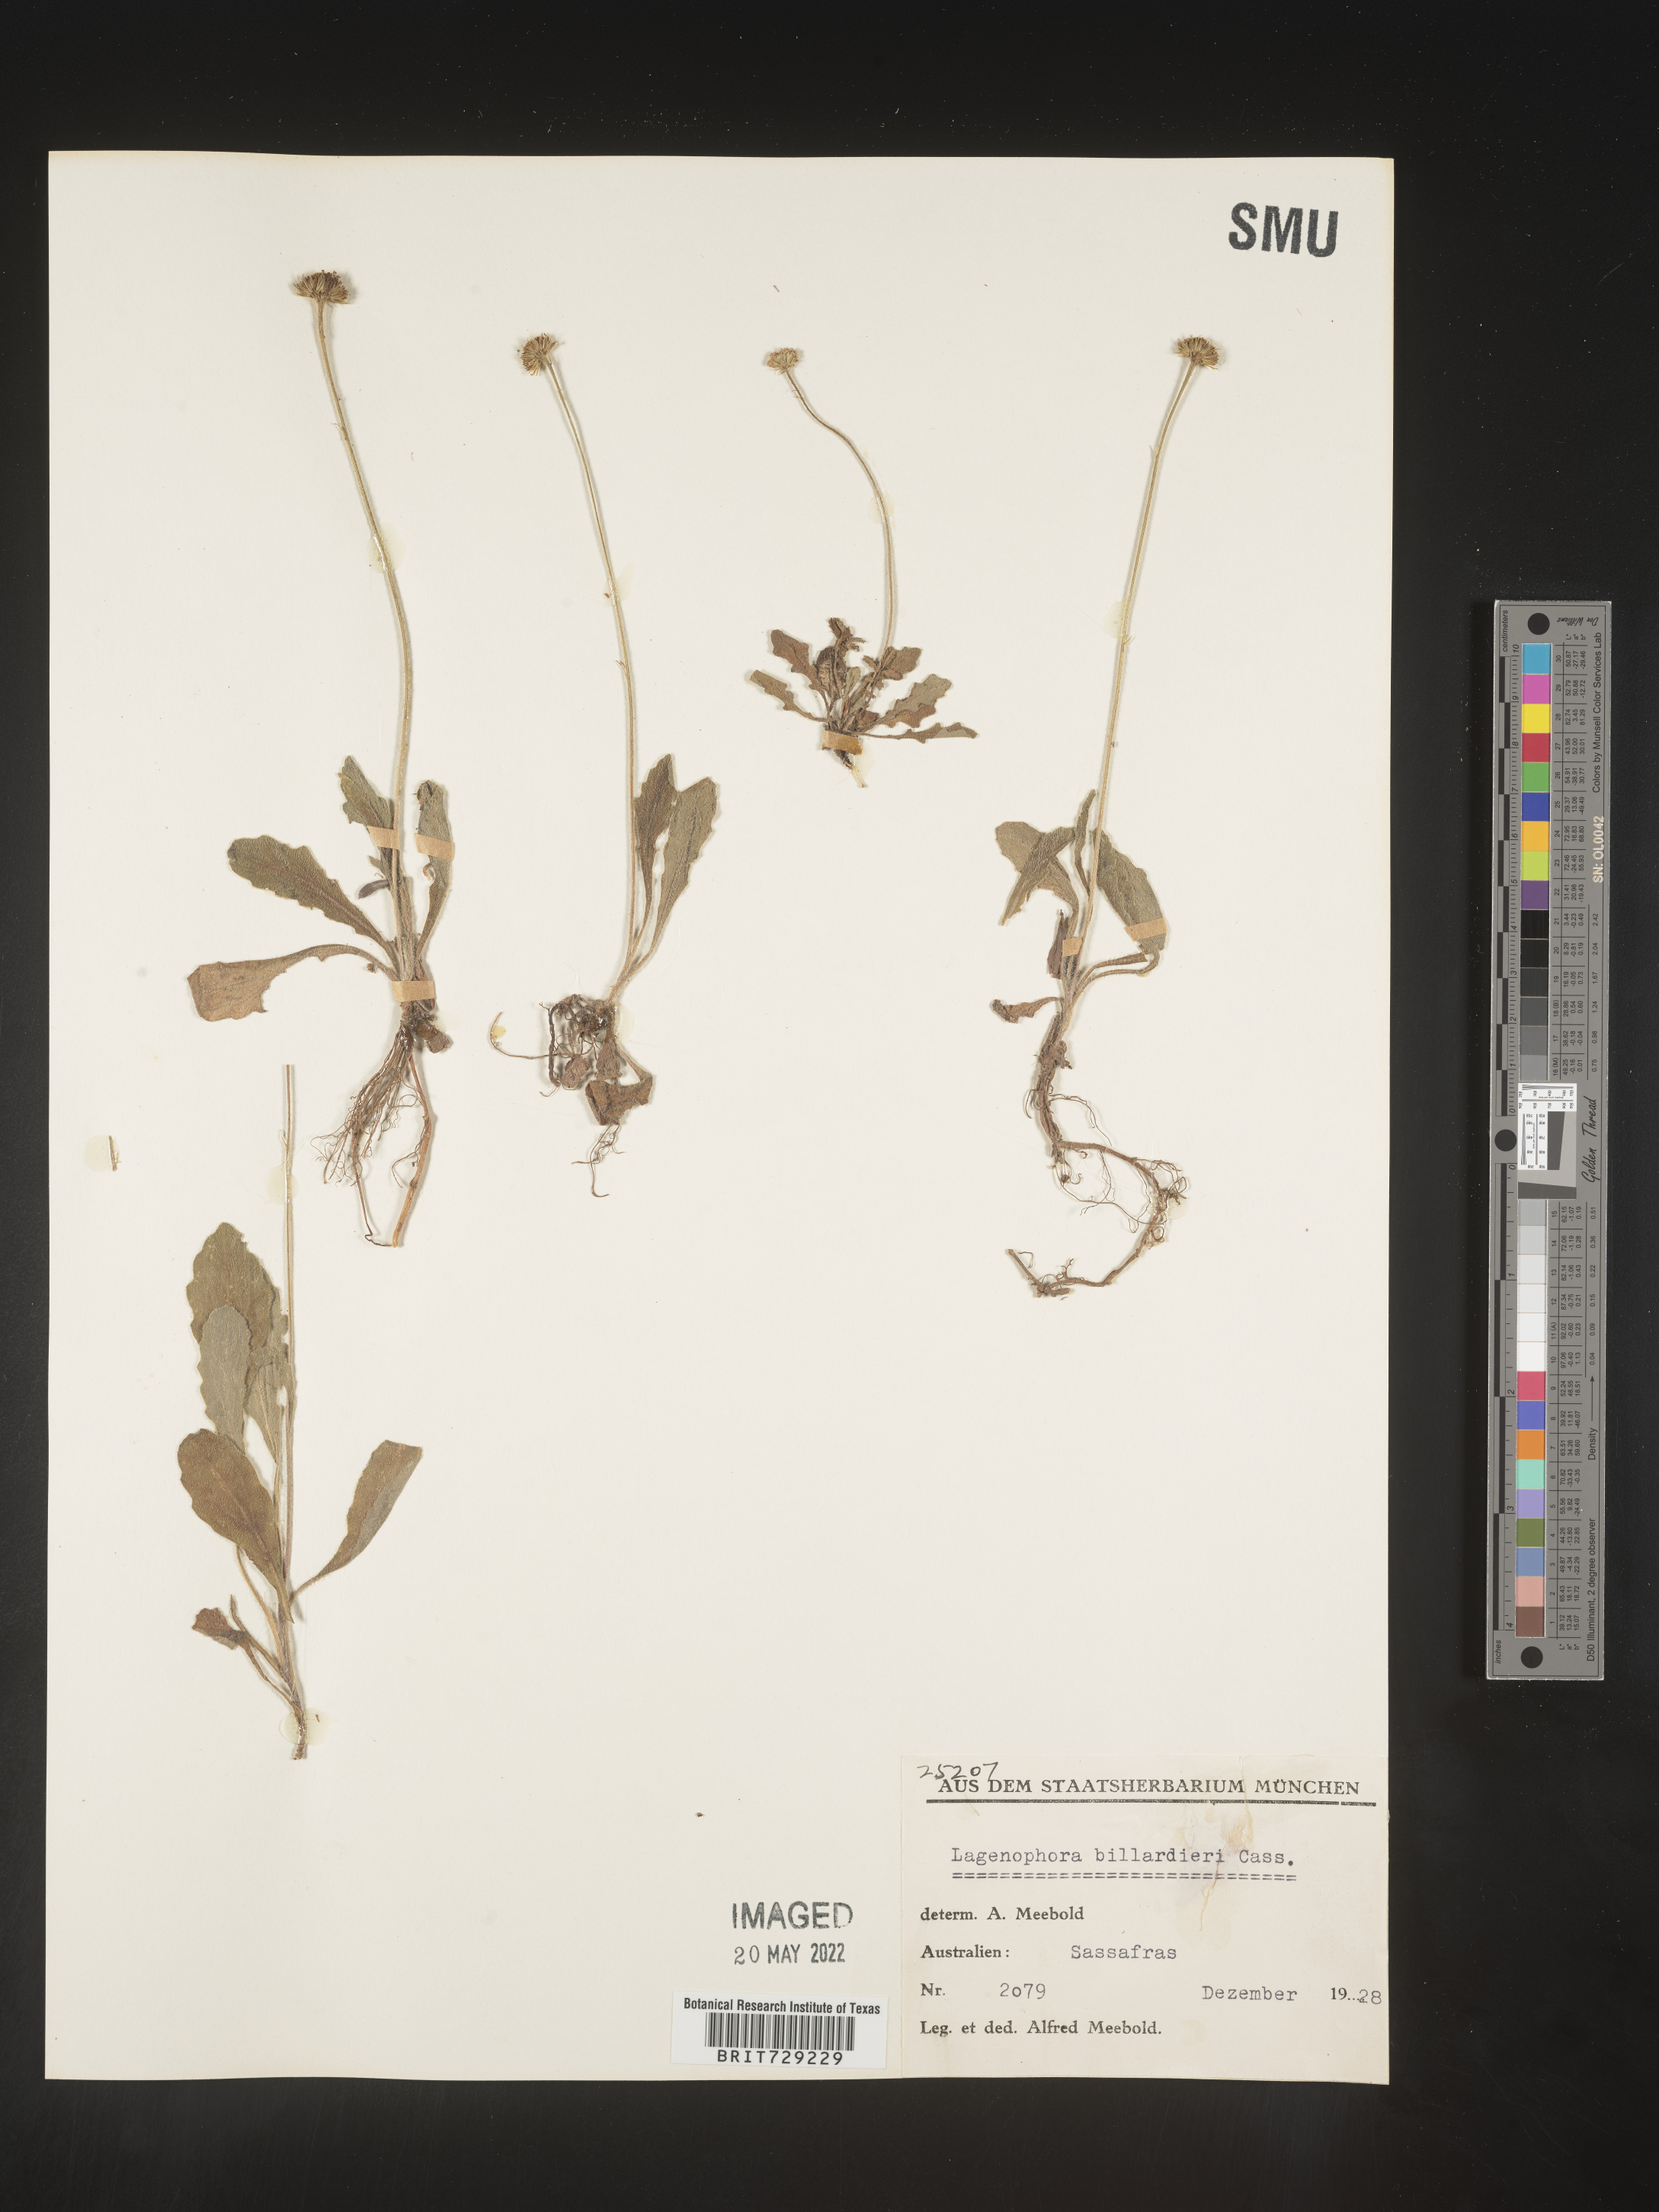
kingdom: Plantae
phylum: Tracheophyta
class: Magnoliopsida
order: Asterales
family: Asteraceae
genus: Lagenophora
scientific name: Lagenophora
